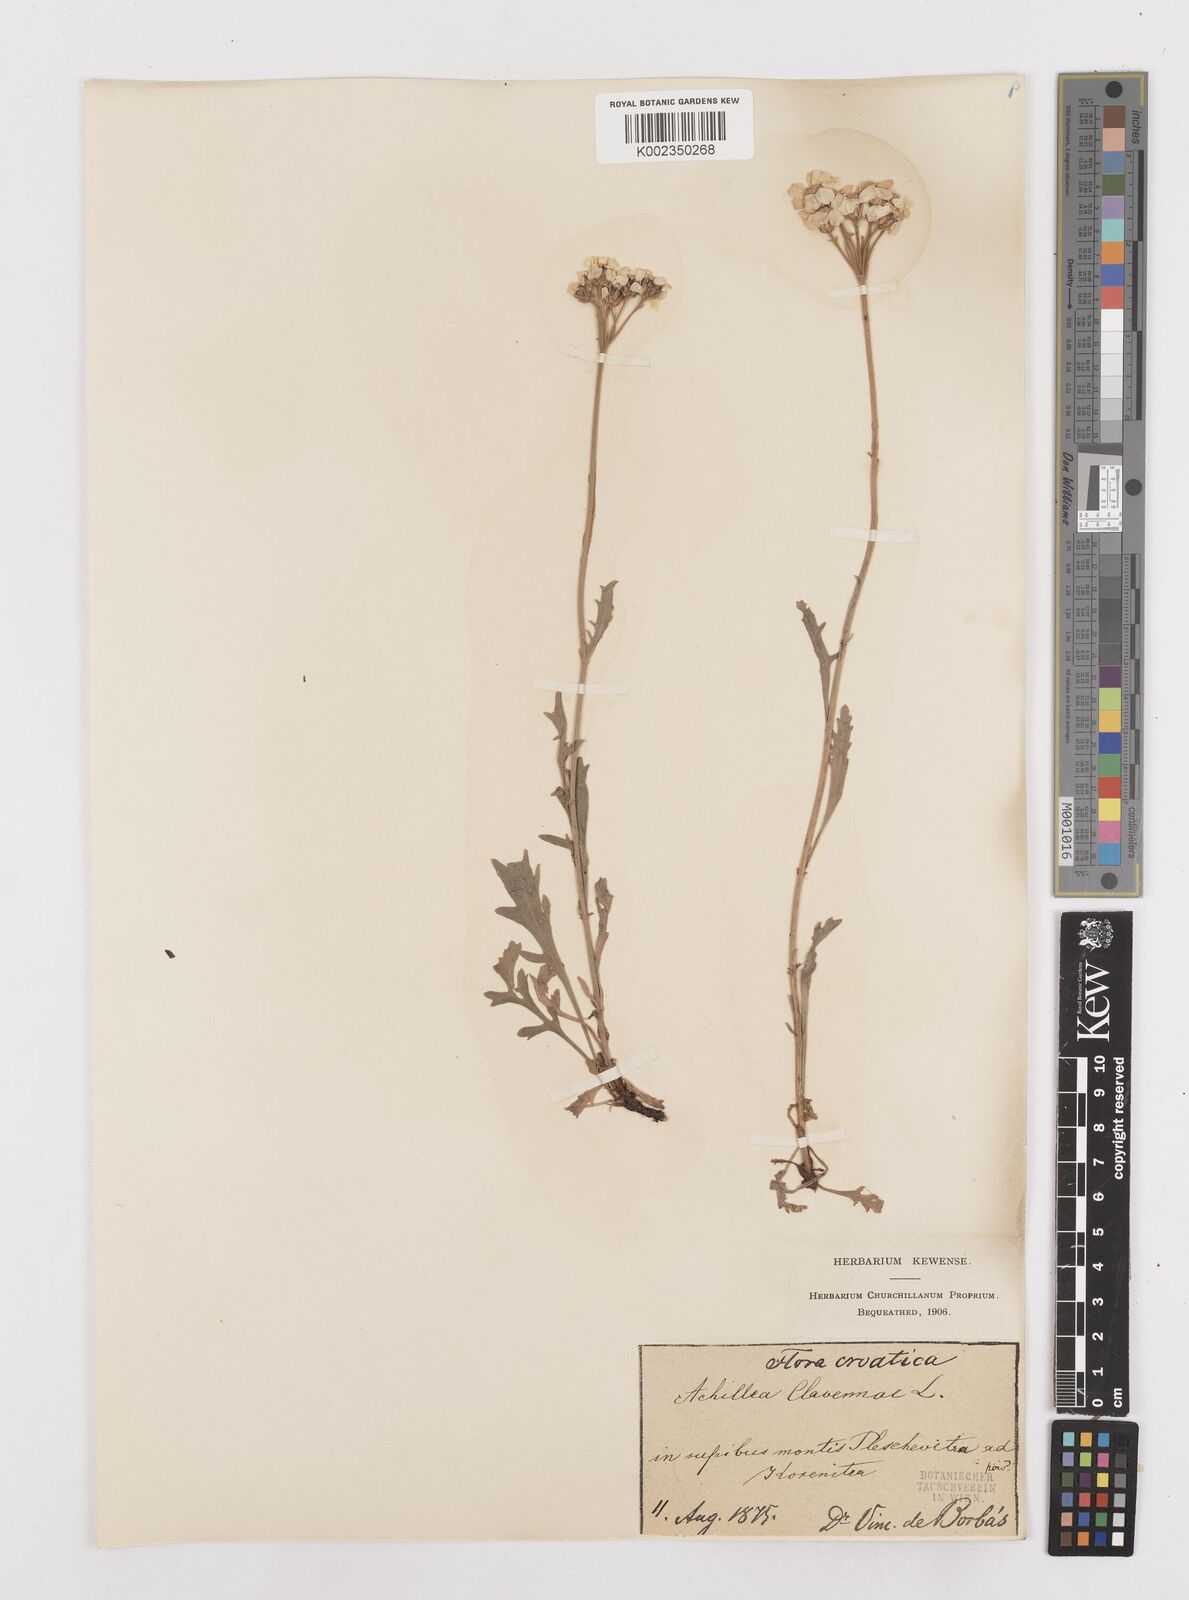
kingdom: Plantae
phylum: Tracheophyta
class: Magnoliopsida
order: Asterales
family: Asteraceae
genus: Achillea
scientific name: Achillea clavennae
